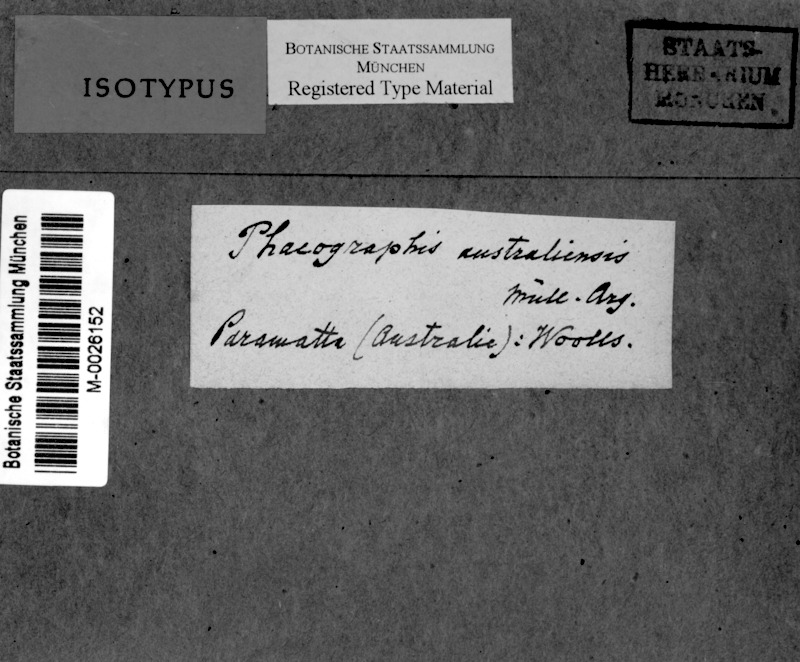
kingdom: Fungi
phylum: Ascomycota
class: Lecanoromycetes
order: Ostropales
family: Graphidaceae
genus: Halegrapha
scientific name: Halegrapha mucronata
